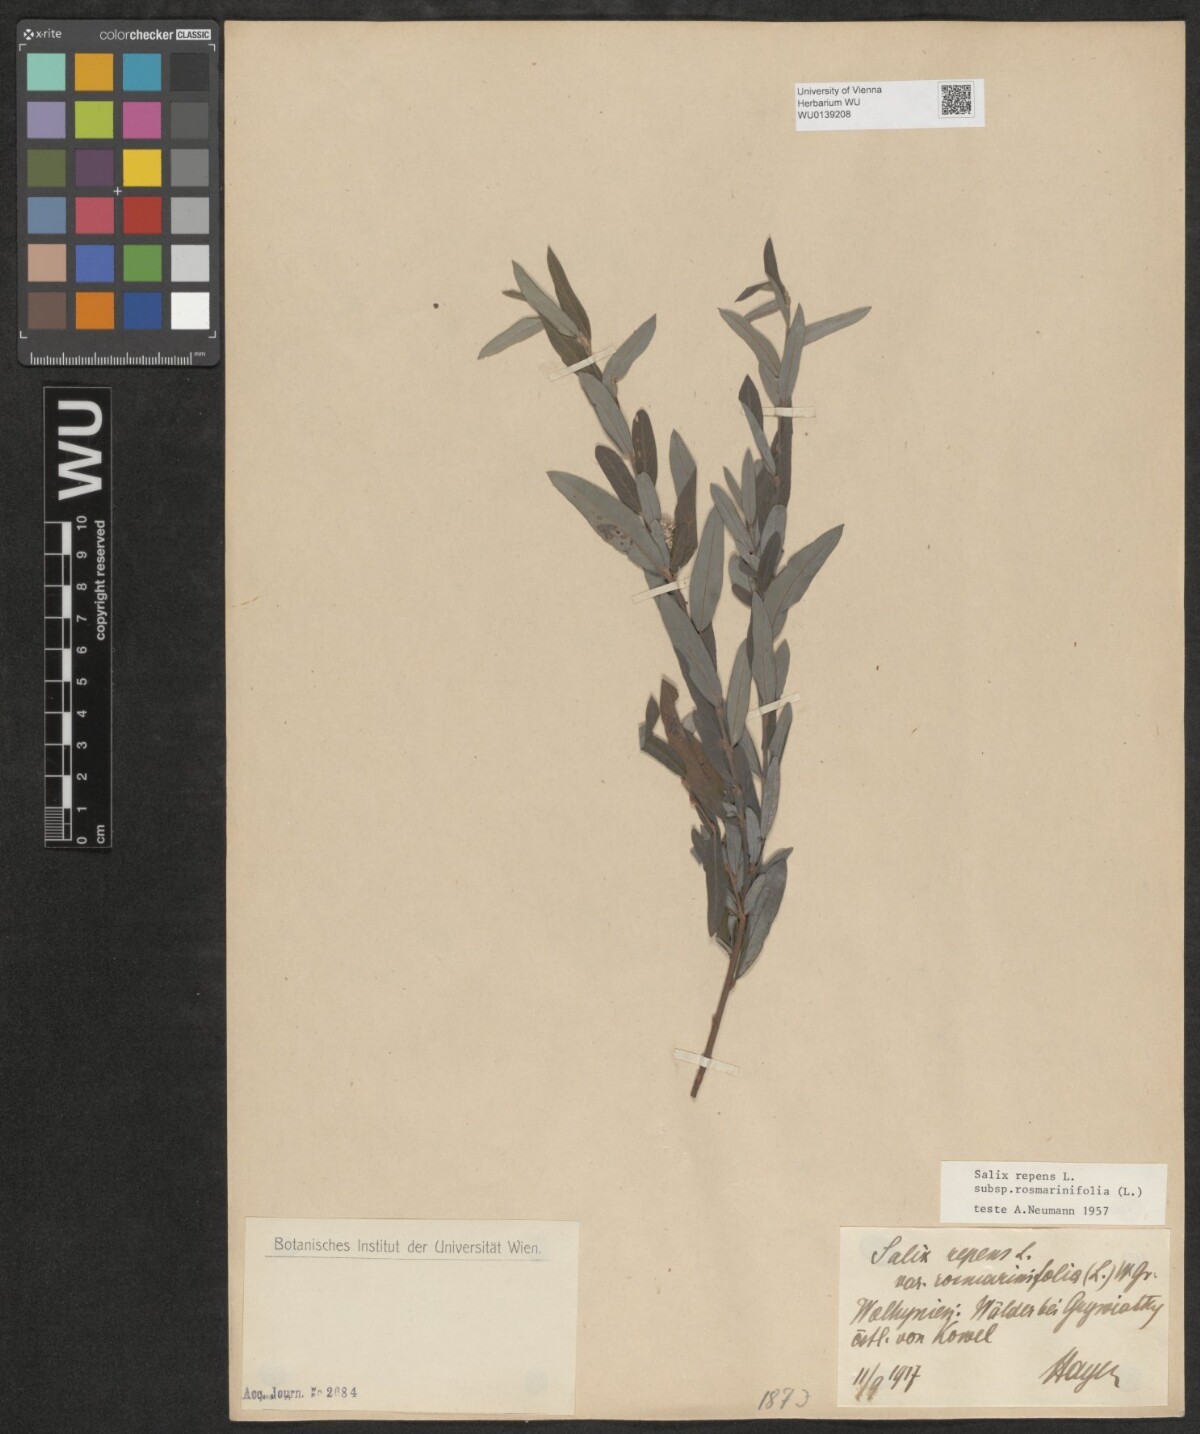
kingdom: Plantae
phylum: Tracheophyta
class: Magnoliopsida
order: Malpighiales
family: Salicaceae
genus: Salix
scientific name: Salix repens
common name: Creeping willow
